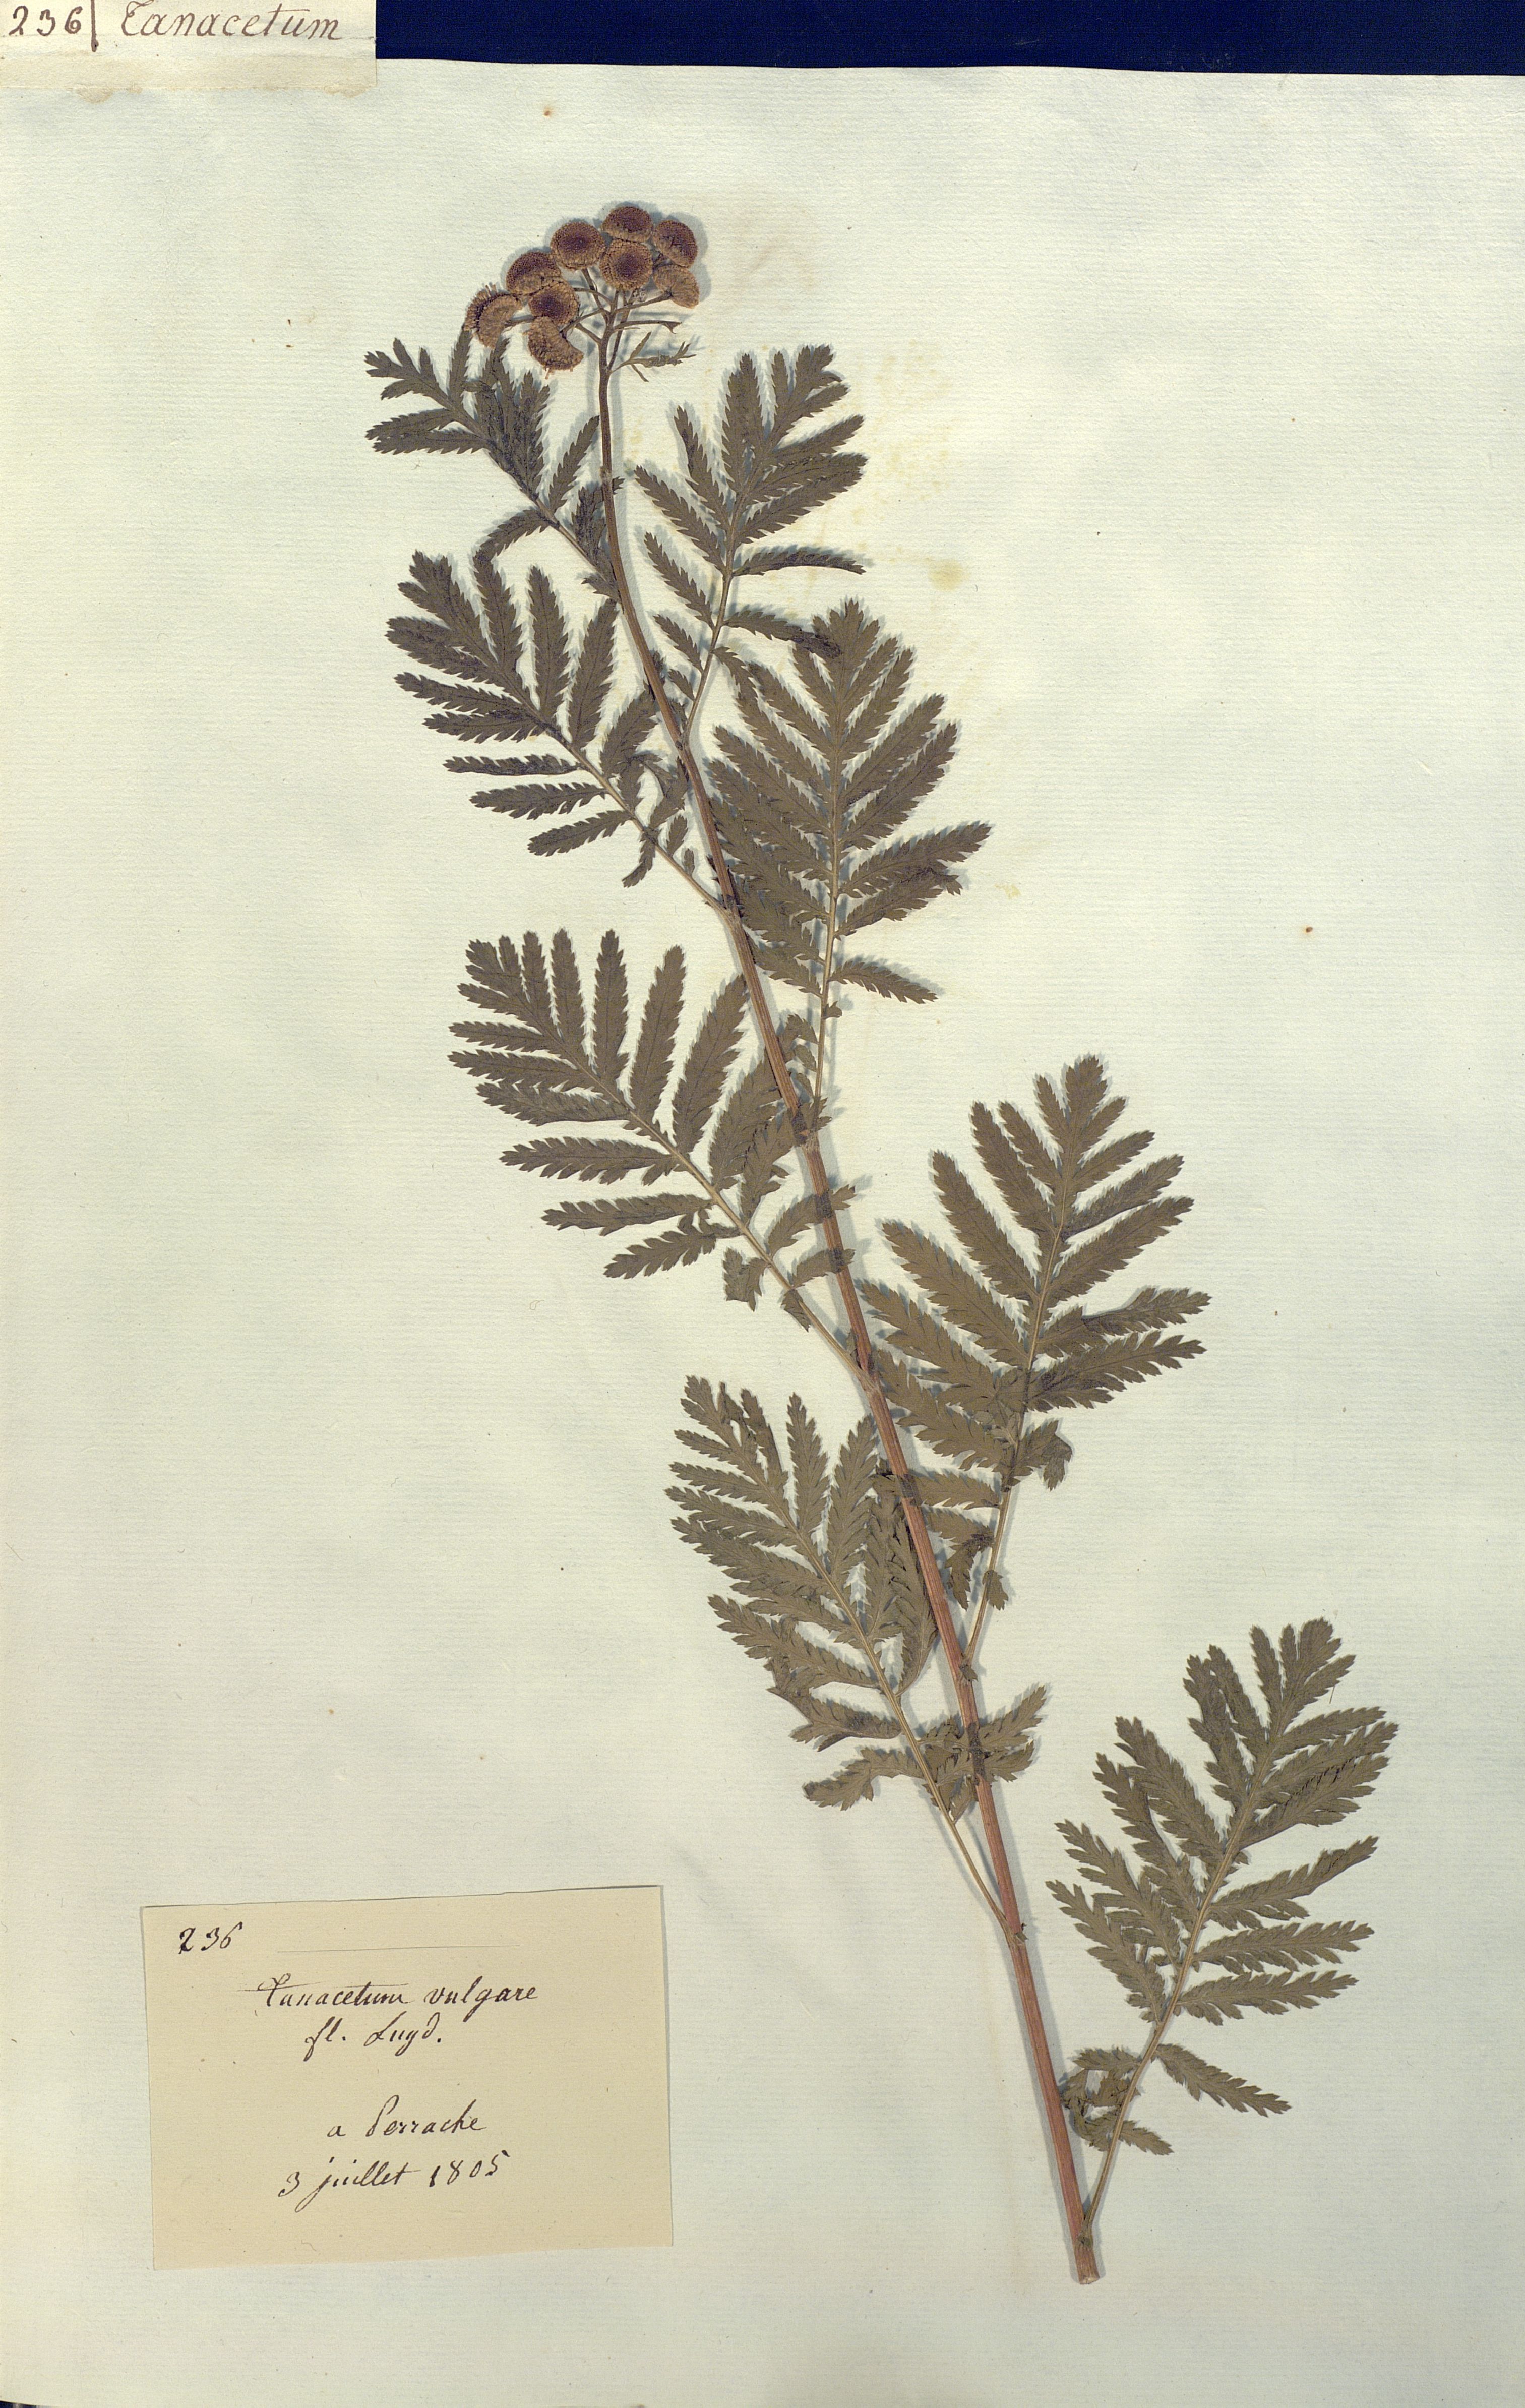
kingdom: Plantae
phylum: Tracheophyta
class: Magnoliopsida
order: Asterales
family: Asteraceae
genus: Tanacetum
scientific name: Tanacetum vulgare
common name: Common tansy
